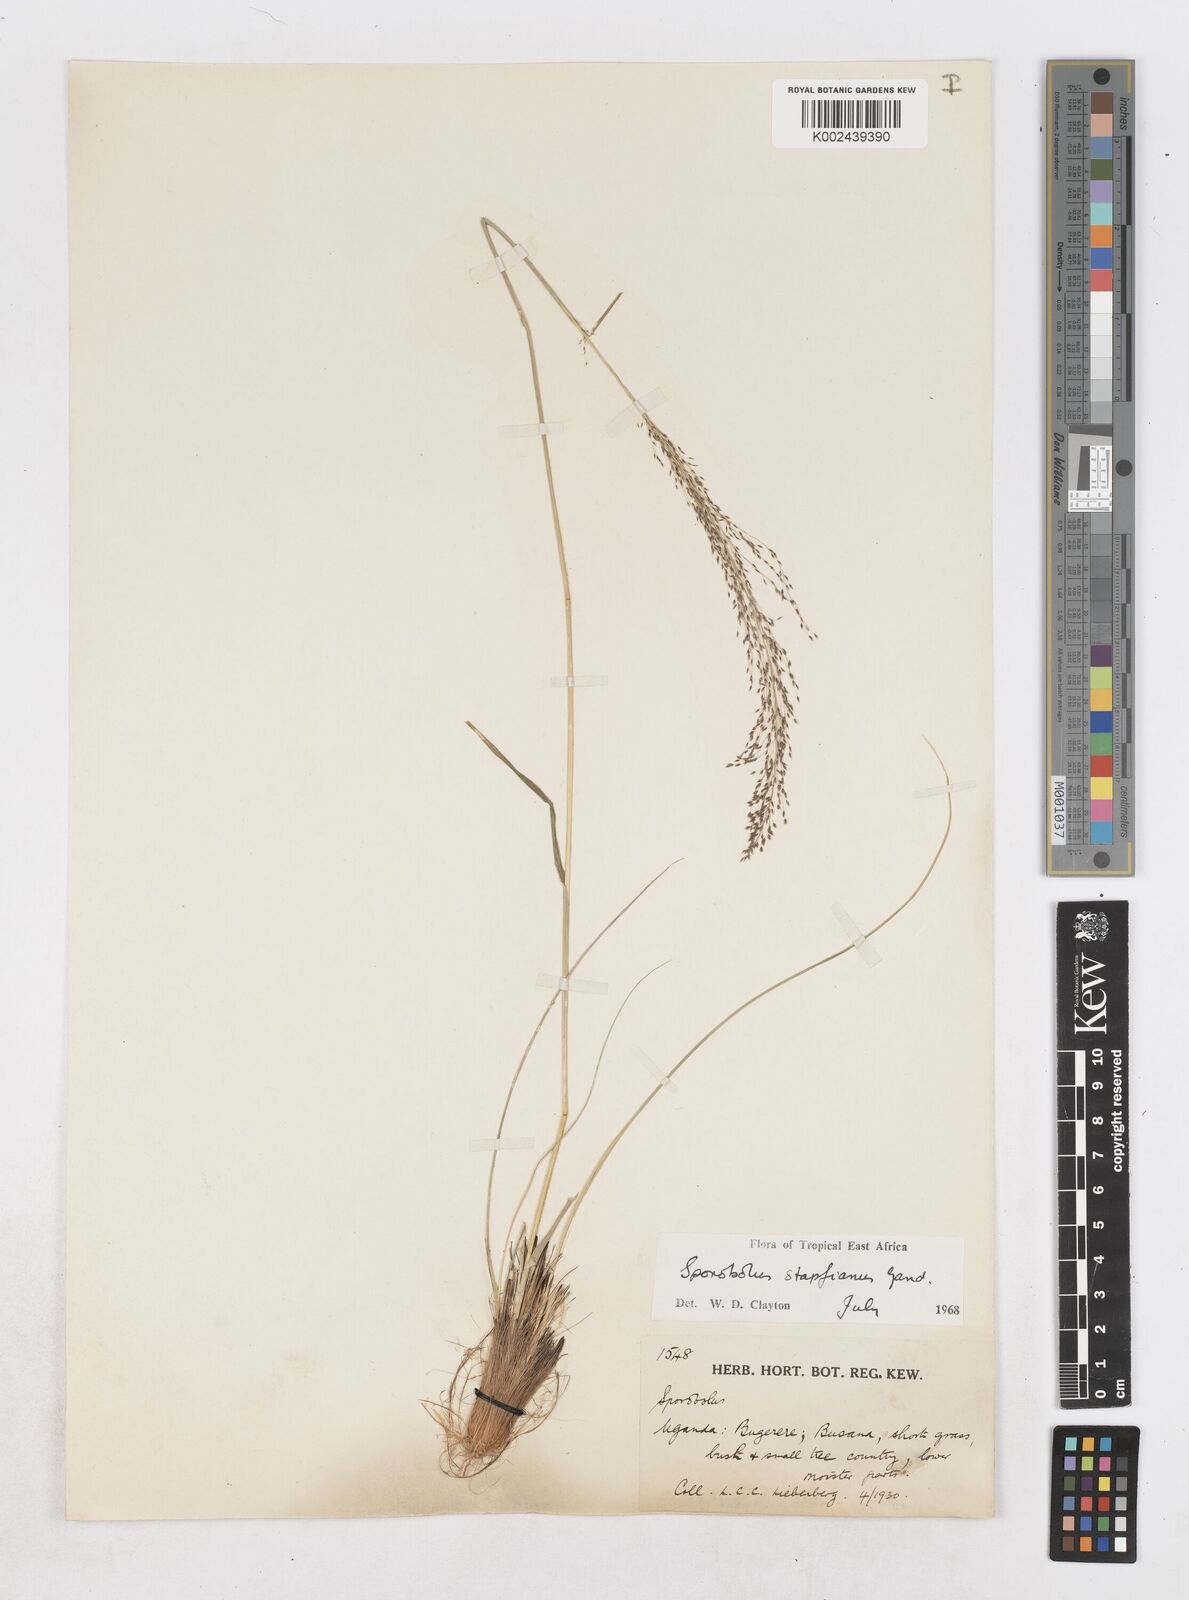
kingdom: Plantae
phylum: Tracheophyta
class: Liliopsida
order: Poales
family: Poaceae
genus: Sporobolus
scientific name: Sporobolus stapfianus
